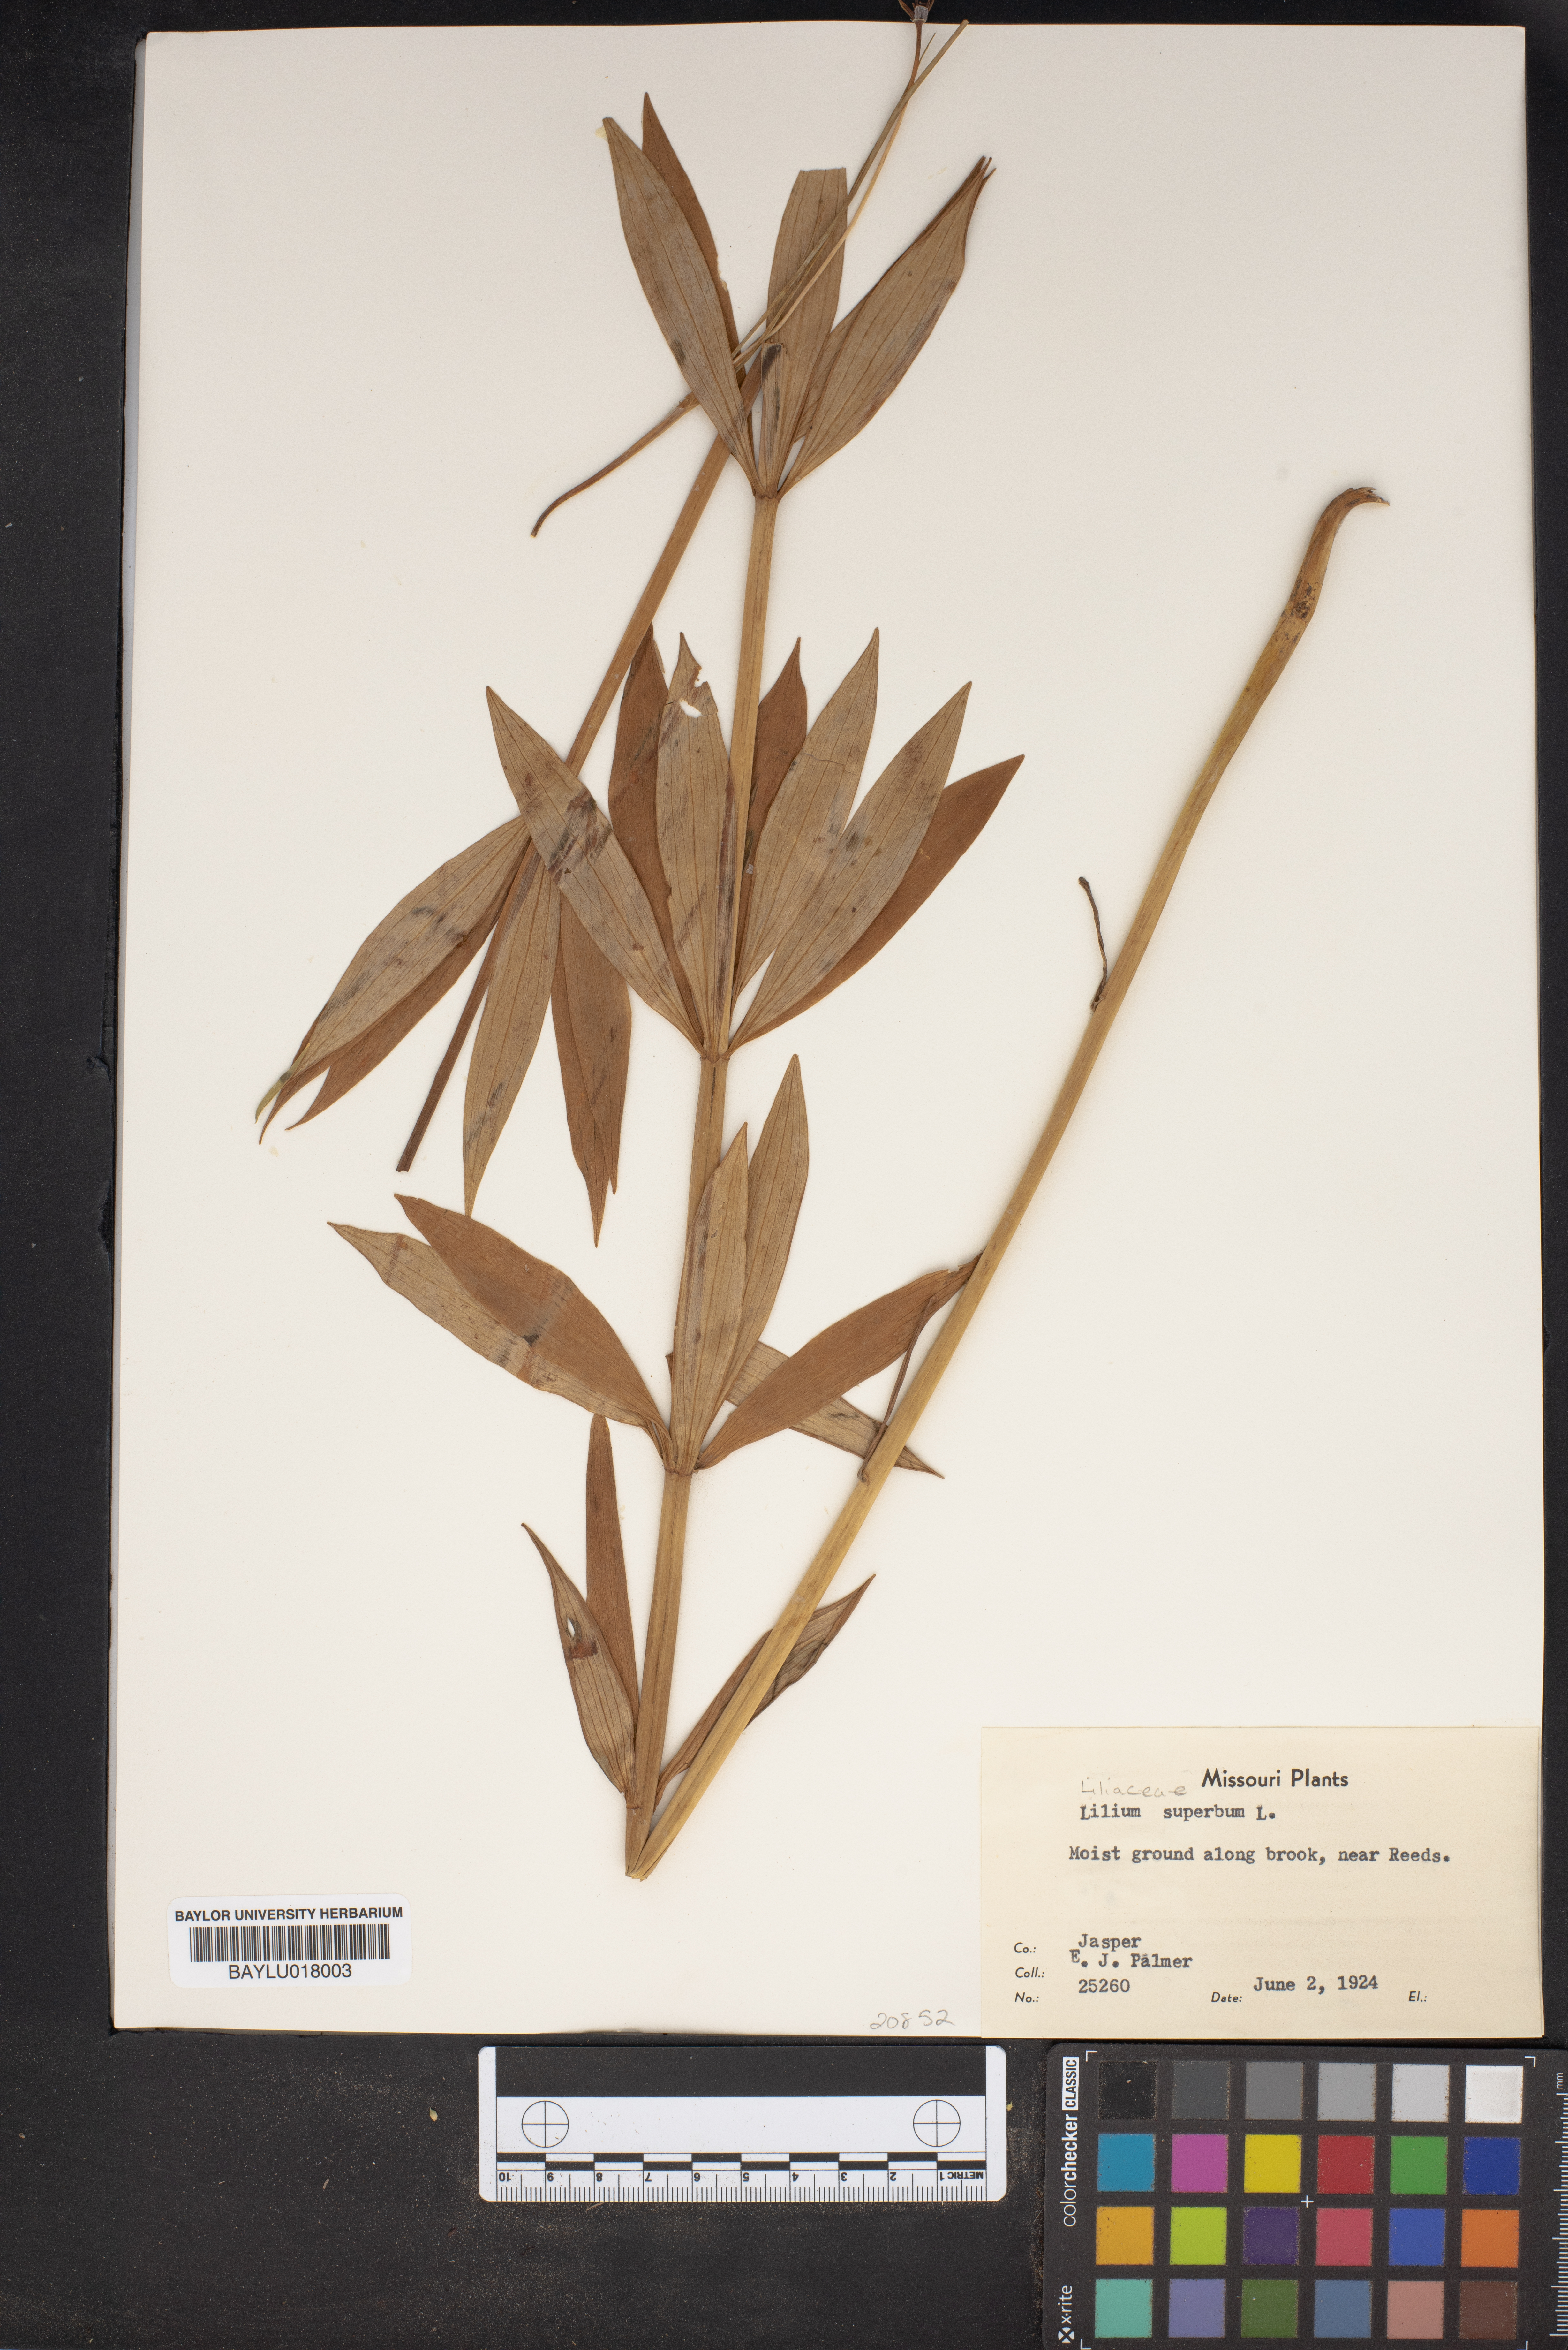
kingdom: Plantae
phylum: Tracheophyta
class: Liliopsida
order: Liliales
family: Liliaceae
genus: Lilium
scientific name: Lilium superbum
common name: American turk's-cap lily
